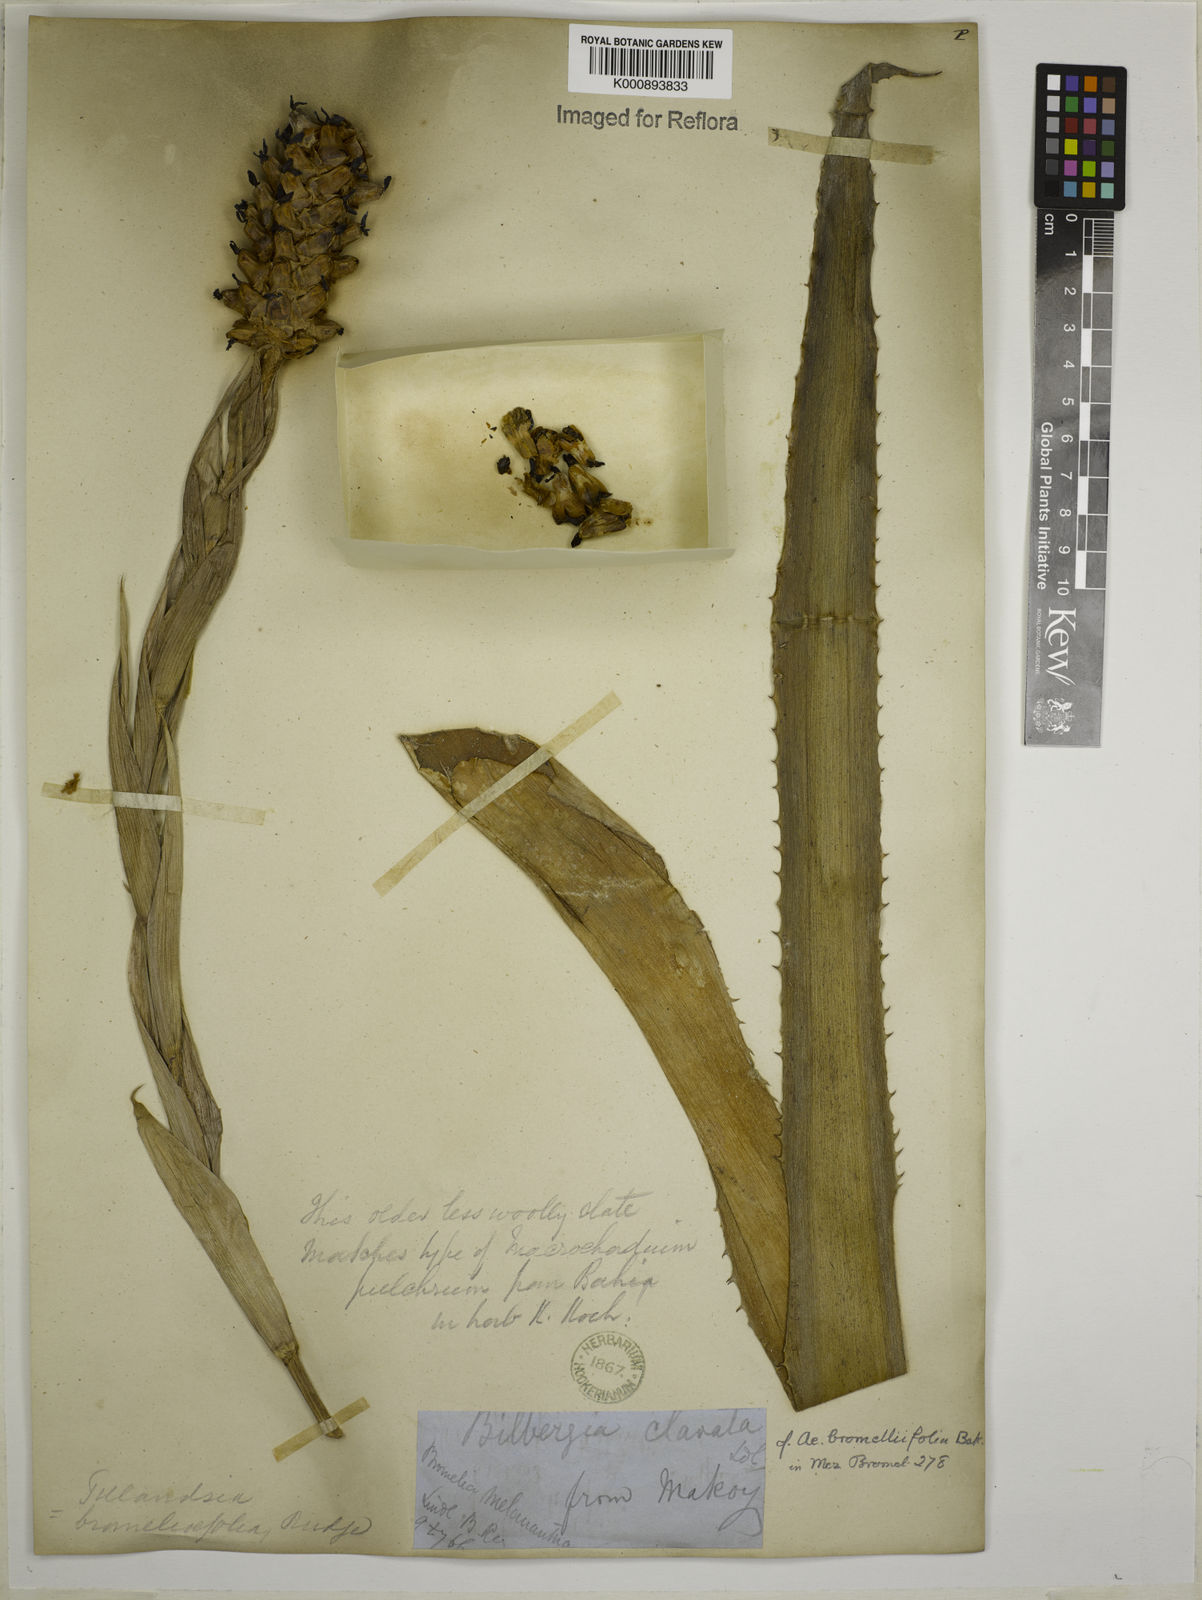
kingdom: Plantae
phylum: Tracheophyta
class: Liliopsida
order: Poales
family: Bromeliaceae
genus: Aechmea
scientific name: Aechmea
